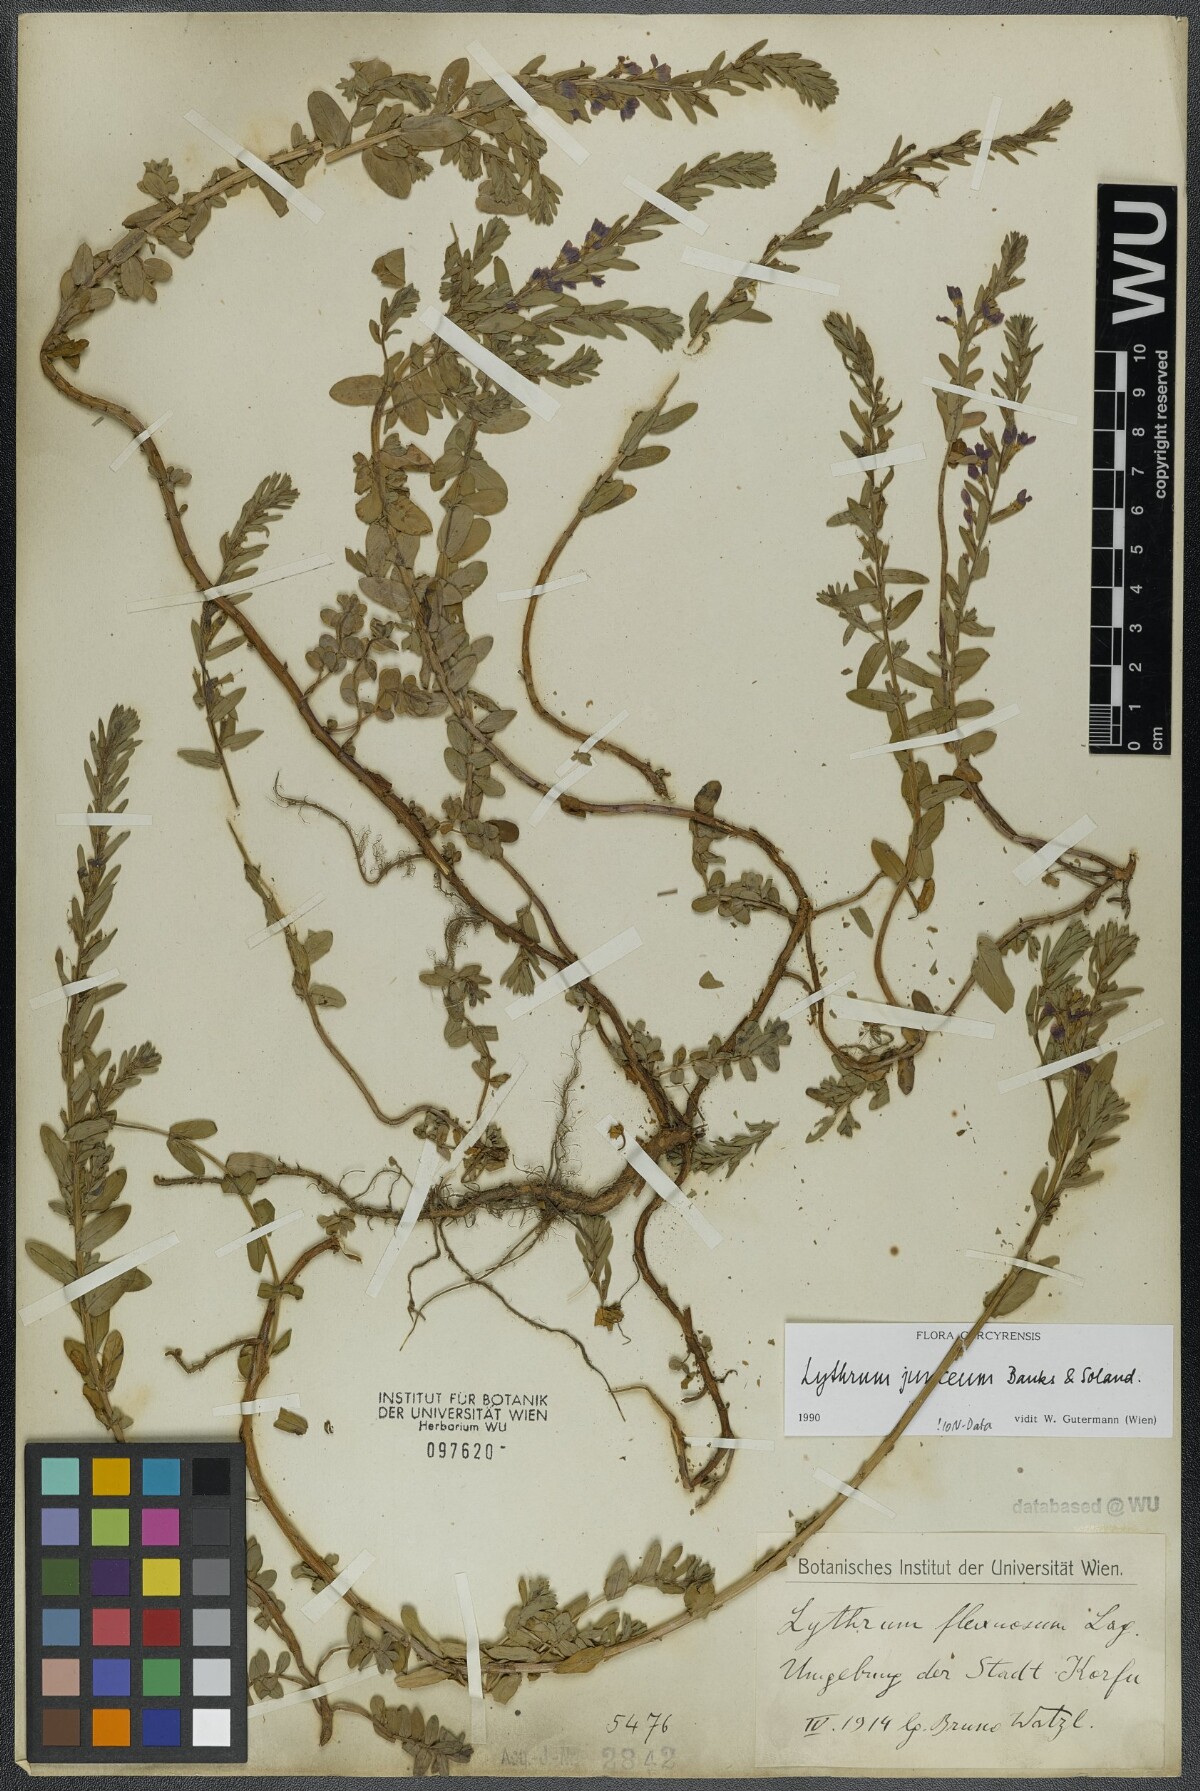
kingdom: Plantae
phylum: Tracheophyta
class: Magnoliopsida
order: Myrtales
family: Lythraceae
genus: Lythrum
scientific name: Lythrum junceum
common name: False grass-poly
